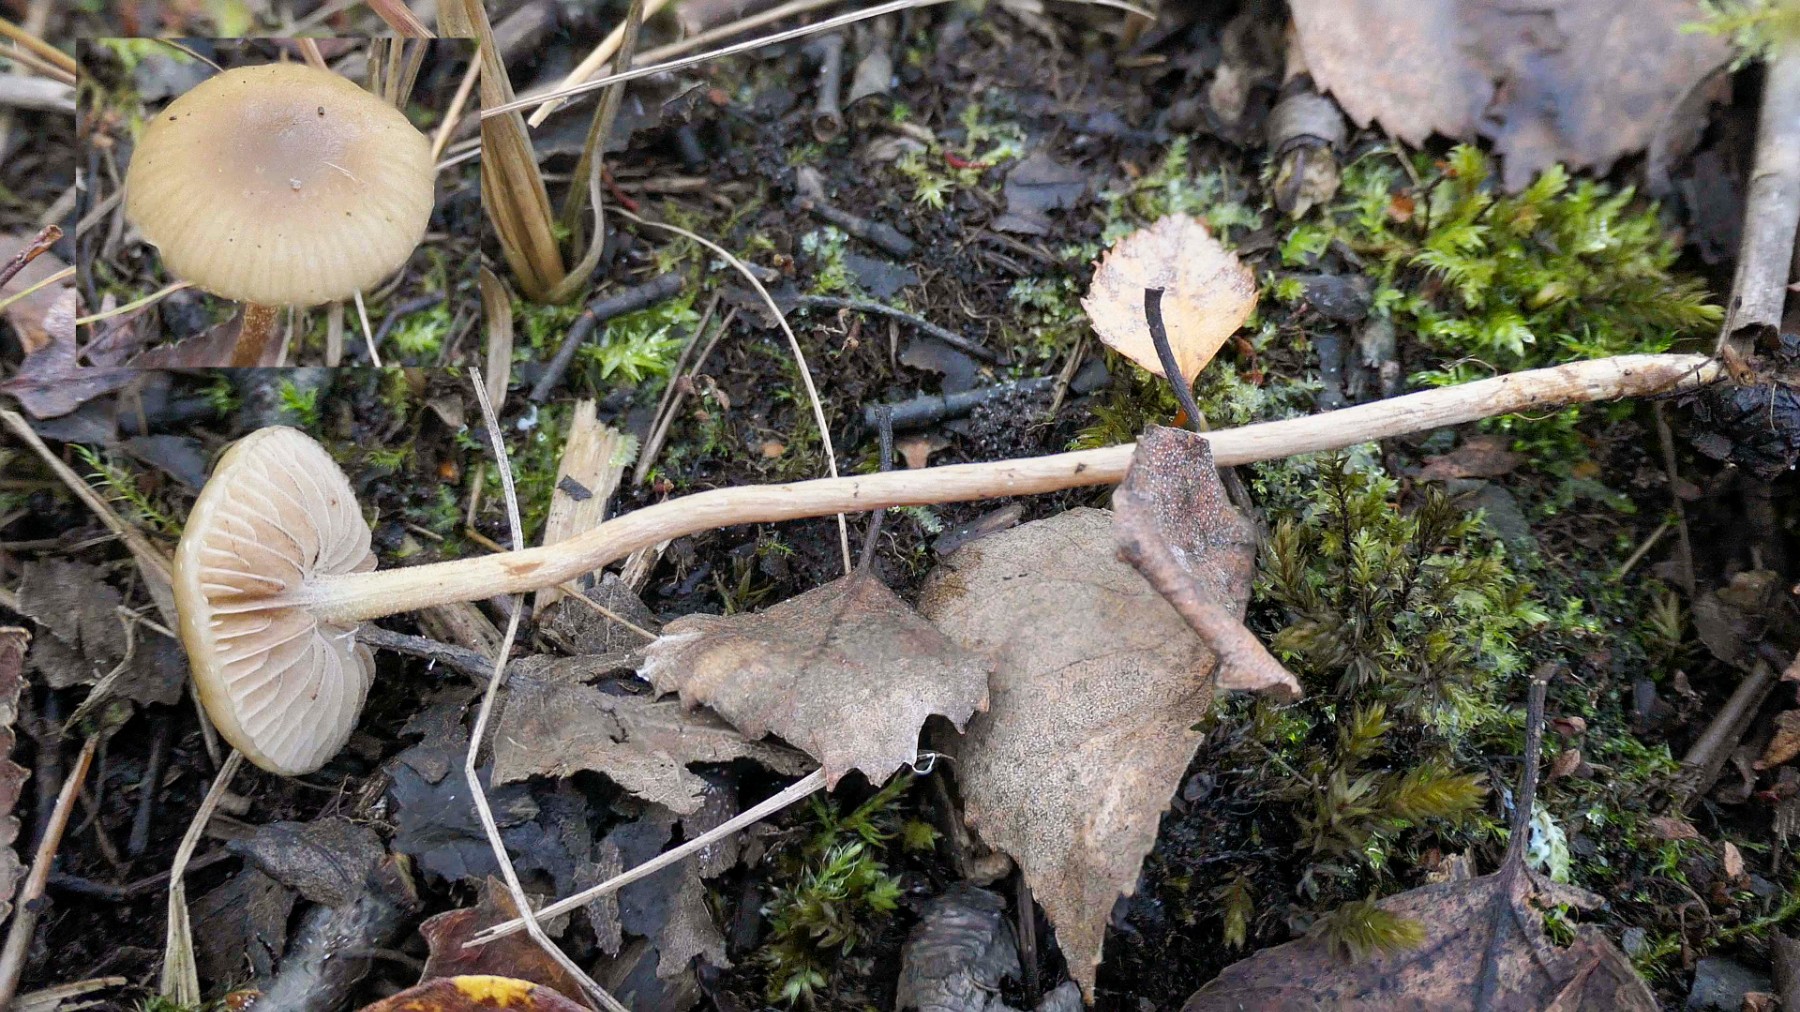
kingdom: Fungi
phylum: Basidiomycota
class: Agaricomycetes
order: Agaricales
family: Strophariaceae
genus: Hypholoma
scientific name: Hypholoma myosotis
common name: slimet svovlhat
